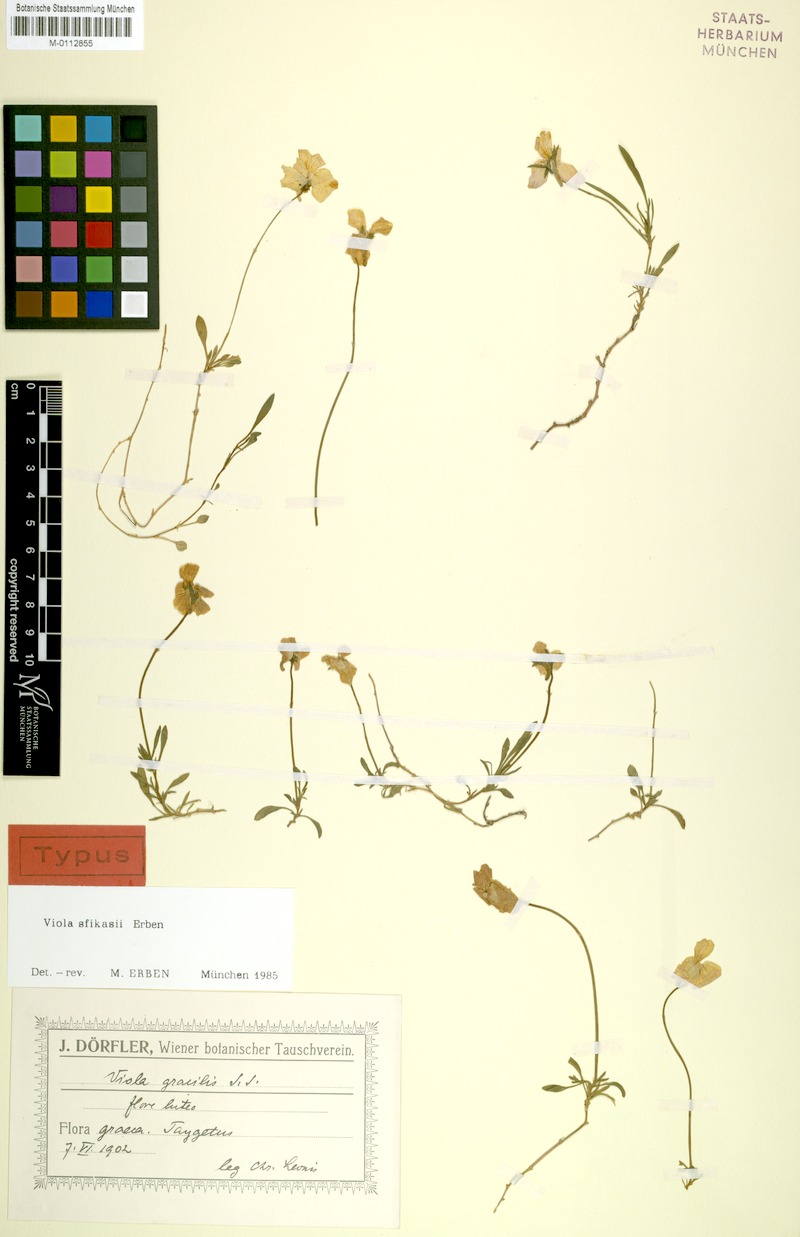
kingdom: Plantae
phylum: Tracheophyta
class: Magnoliopsida
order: Malpighiales
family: Violaceae
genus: Viola
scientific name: Viola sfikasiana
